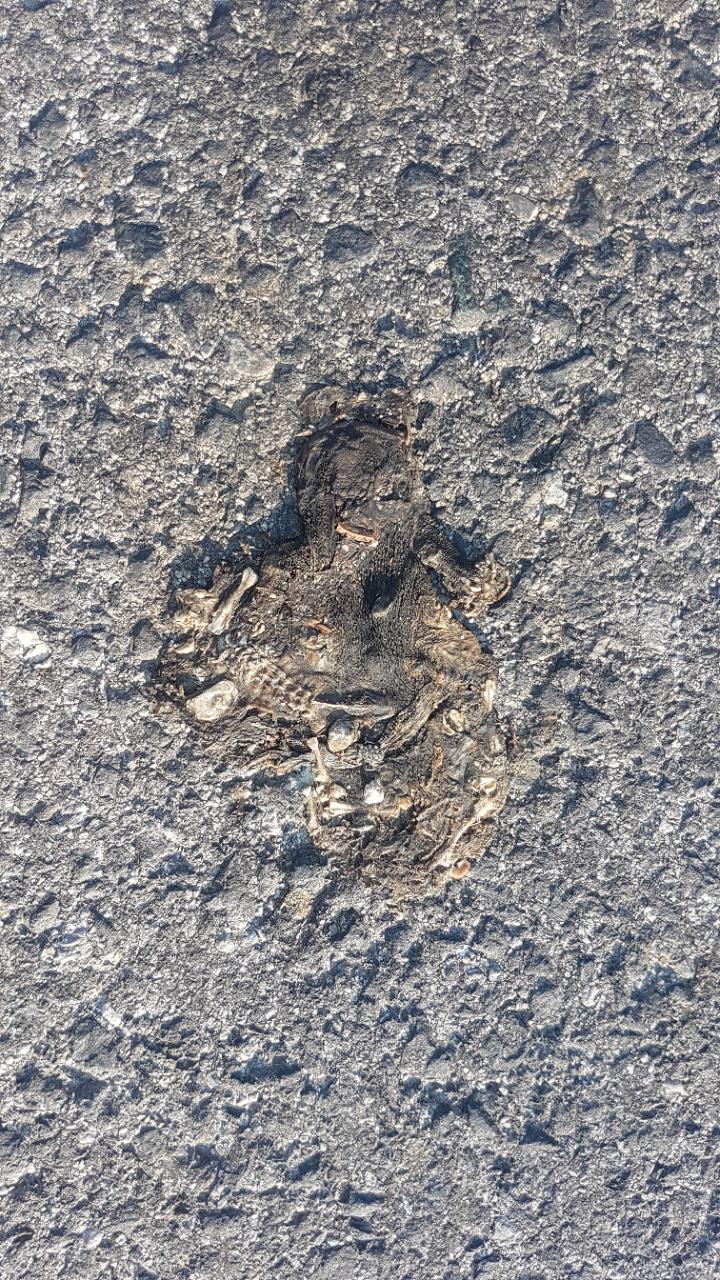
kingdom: Animalia
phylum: Chordata
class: Amphibia
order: Anura
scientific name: Anura
